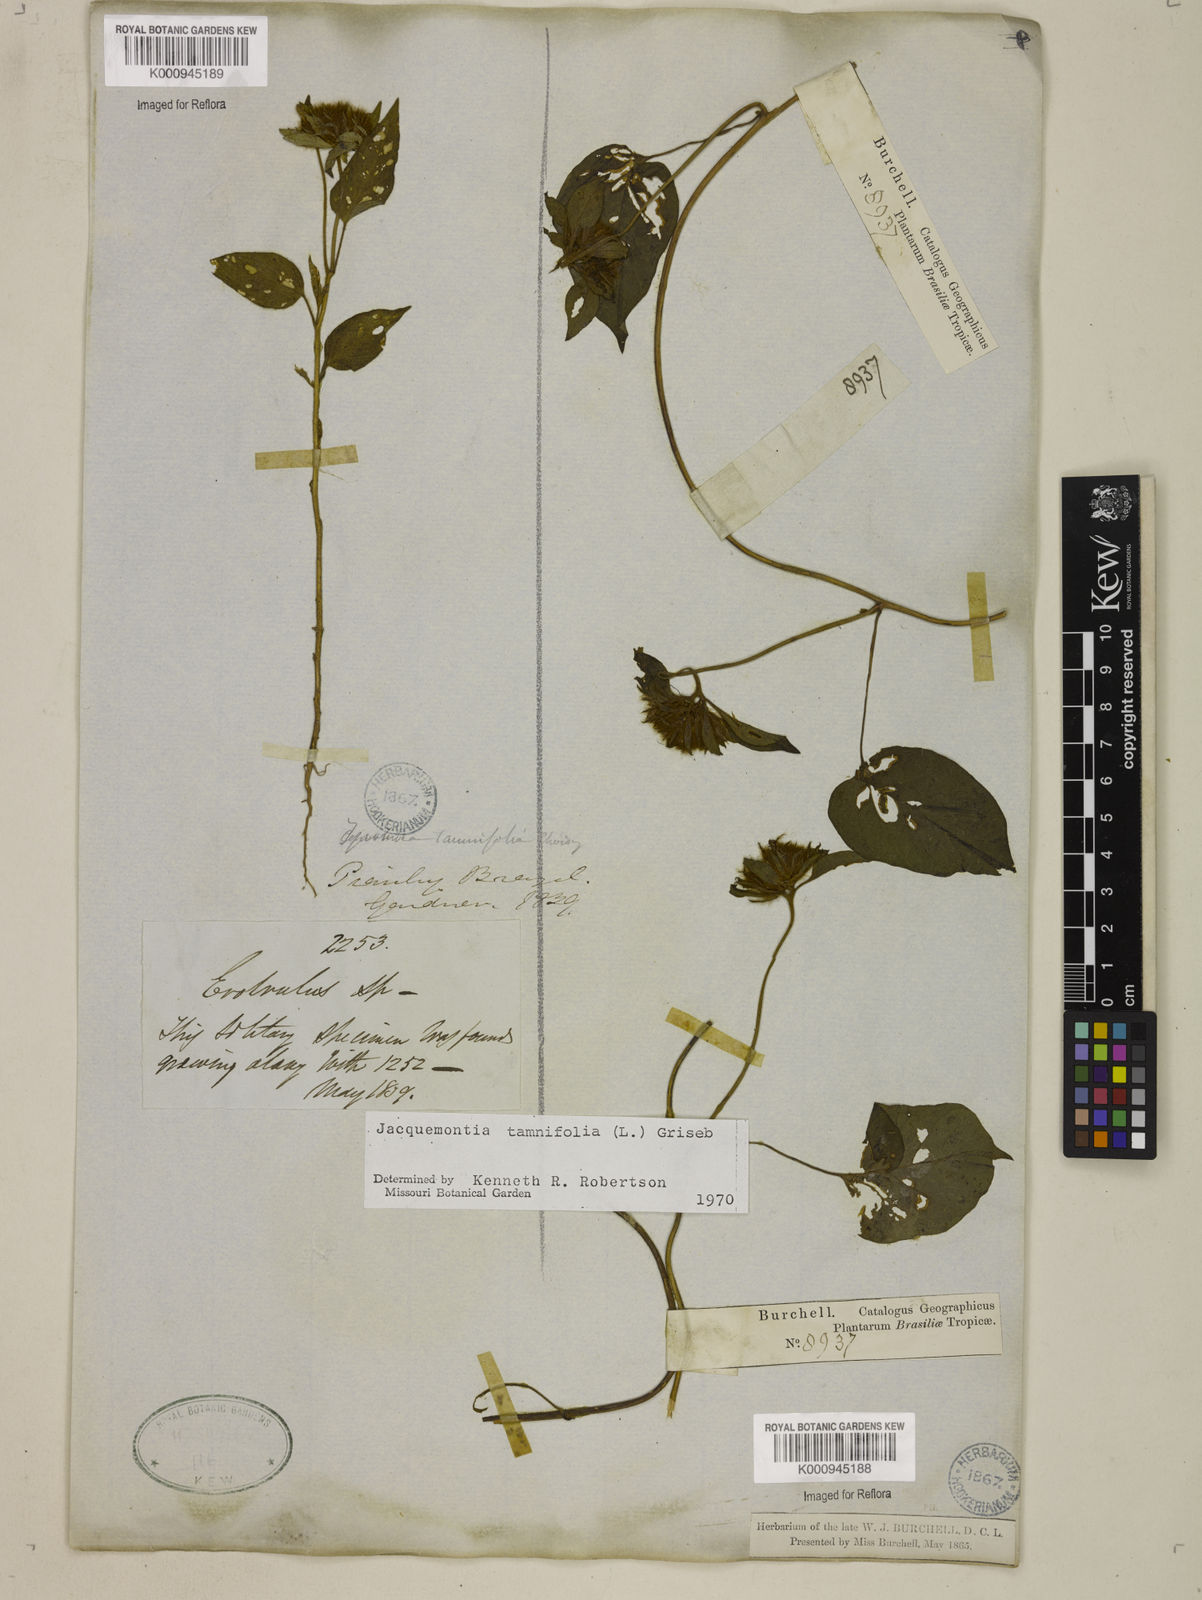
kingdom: Plantae
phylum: Tracheophyta
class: Magnoliopsida
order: Solanales
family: Convolvulaceae
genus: Jacquemontia
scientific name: Jacquemontia tamnifolia
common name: Hairy clustervine
